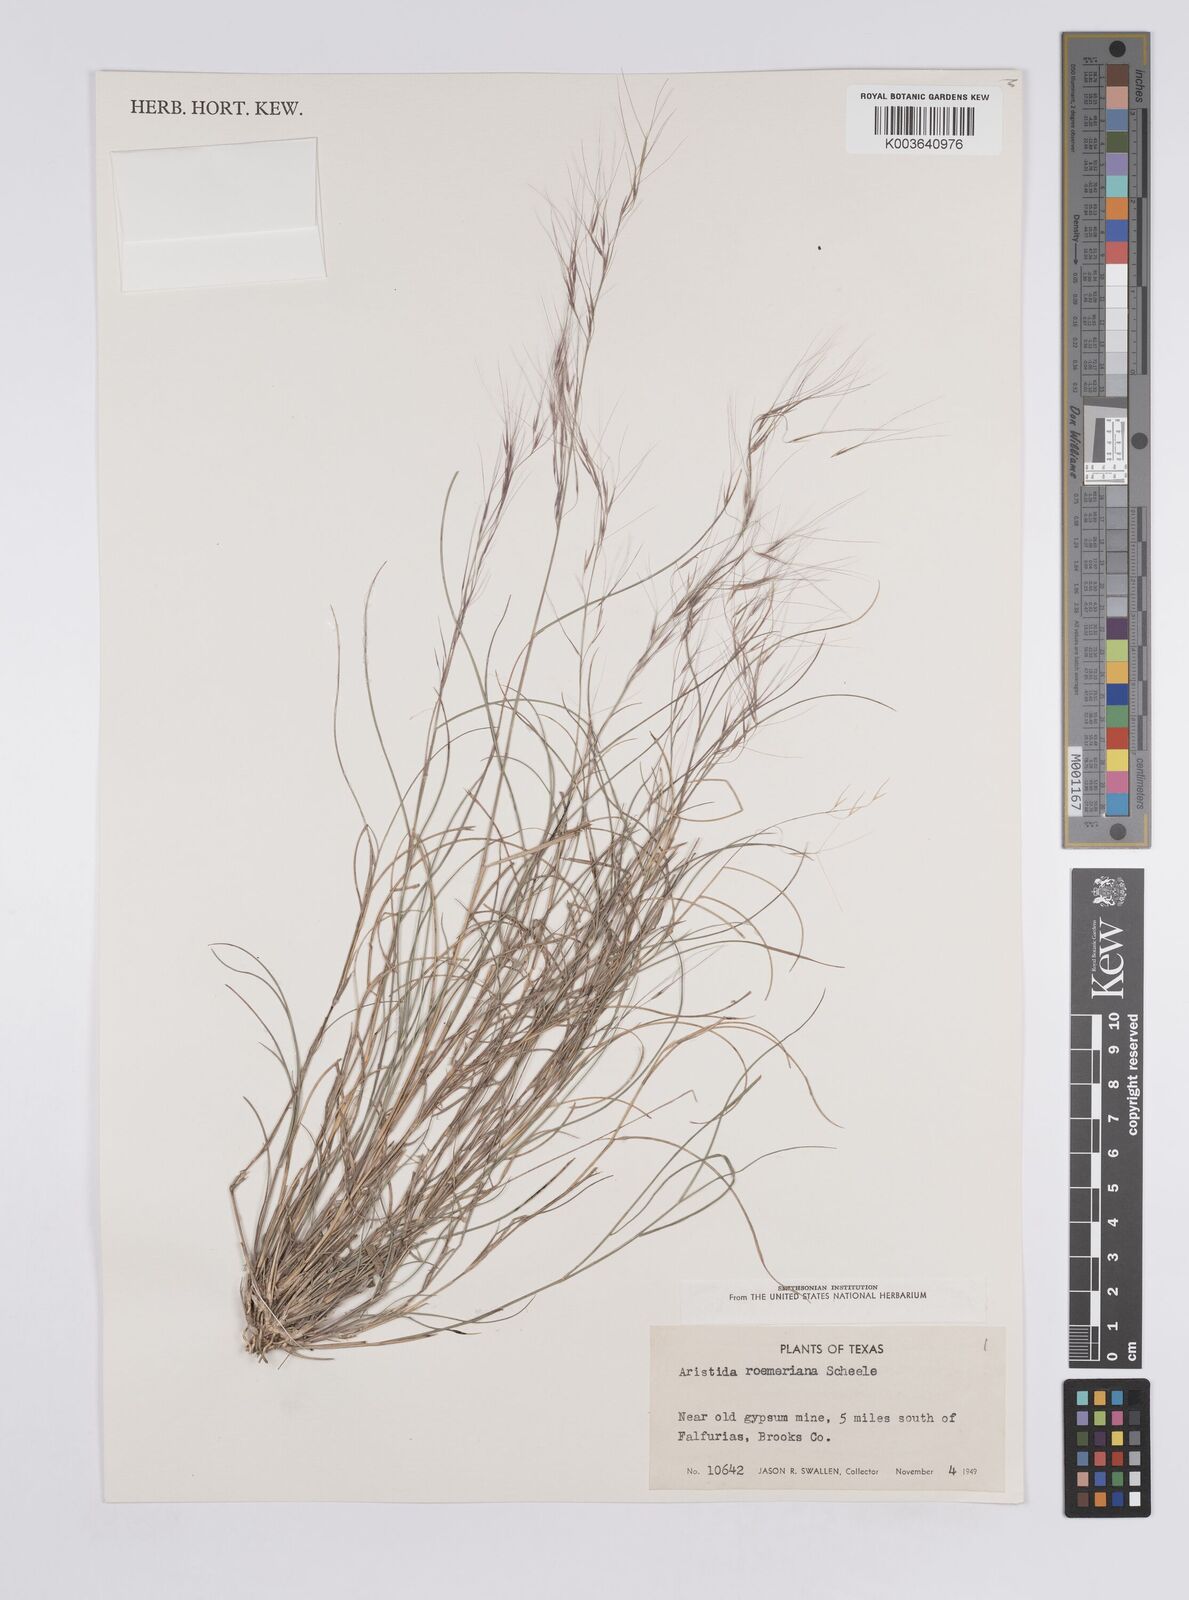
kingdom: Plantae
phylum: Tracheophyta
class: Liliopsida
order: Poales
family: Poaceae
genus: Aristida
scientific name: Aristida purpurea
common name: Purple threeawn
